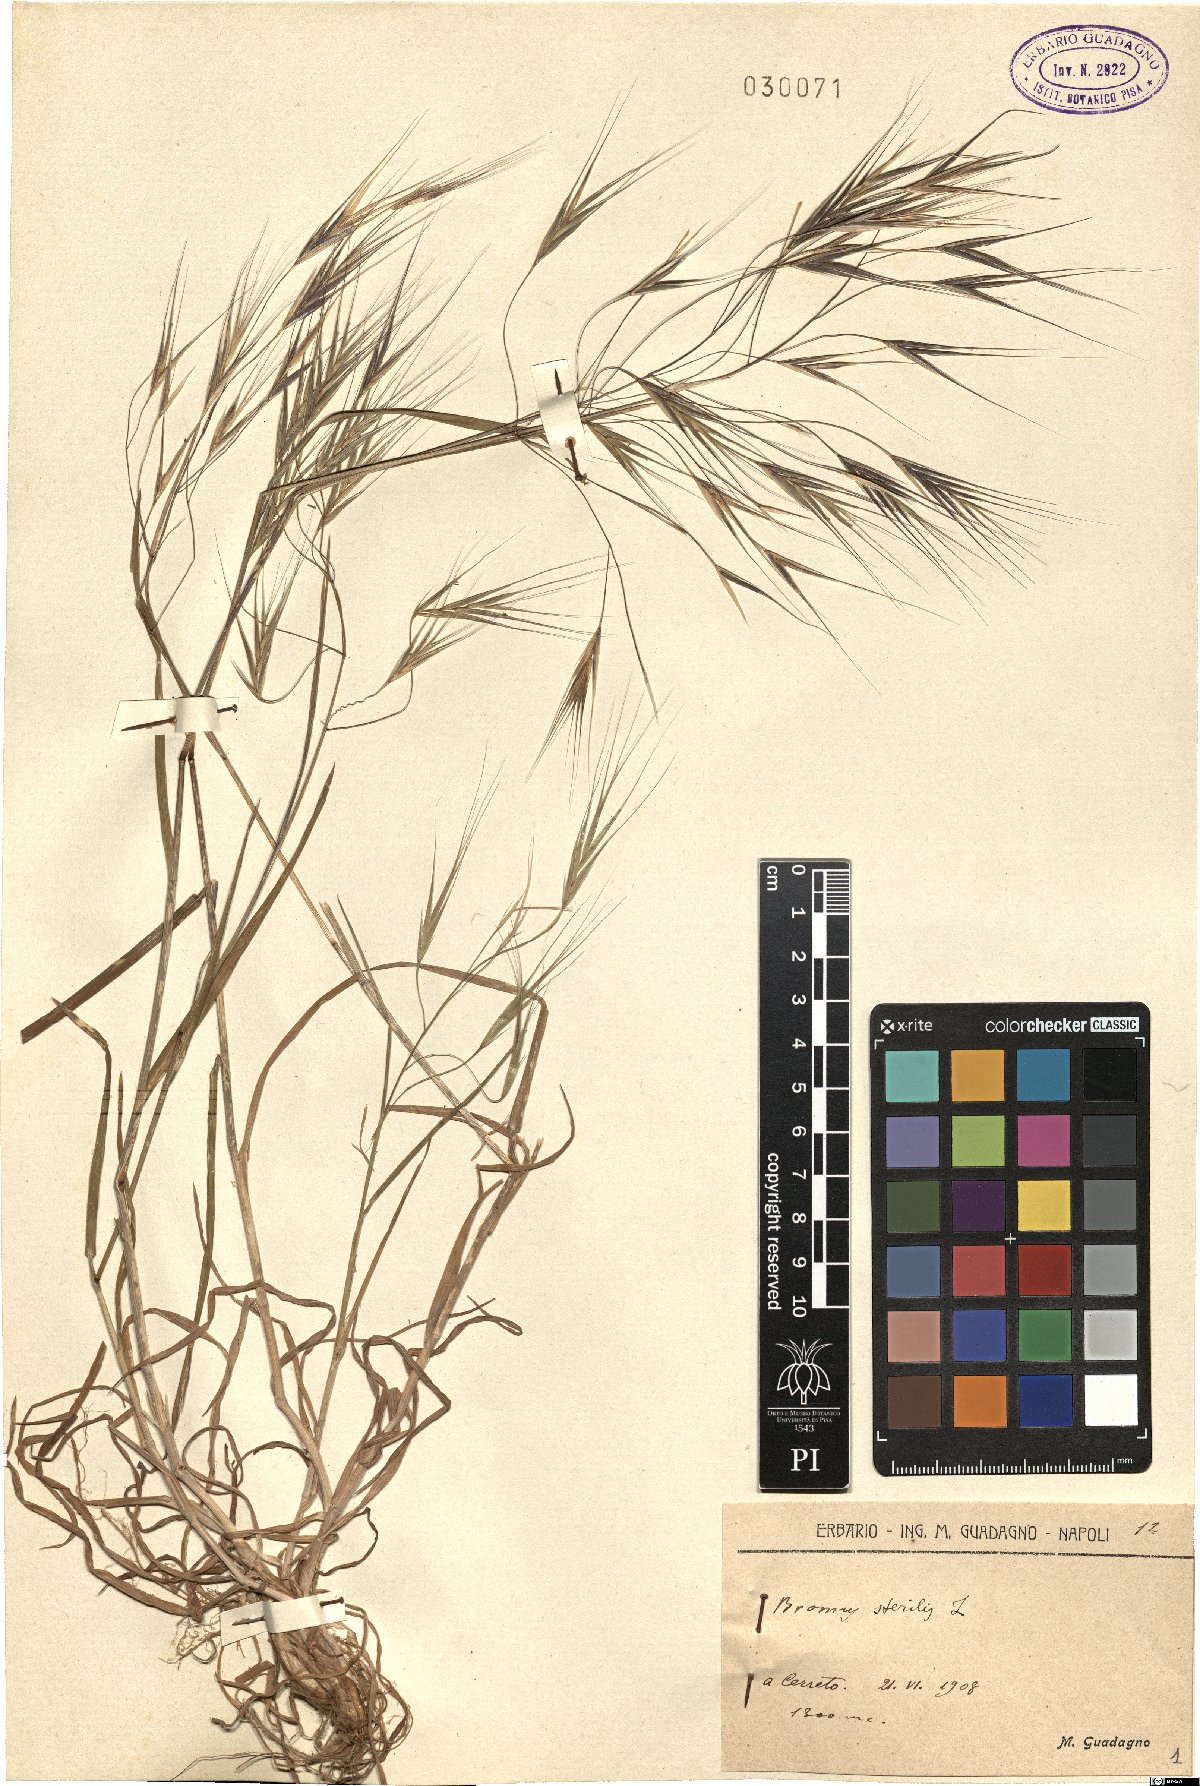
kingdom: Plantae
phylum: Tracheophyta
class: Liliopsida
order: Poales
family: Poaceae
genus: Bromus
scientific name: Bromus sterilis
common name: Poverty brome
